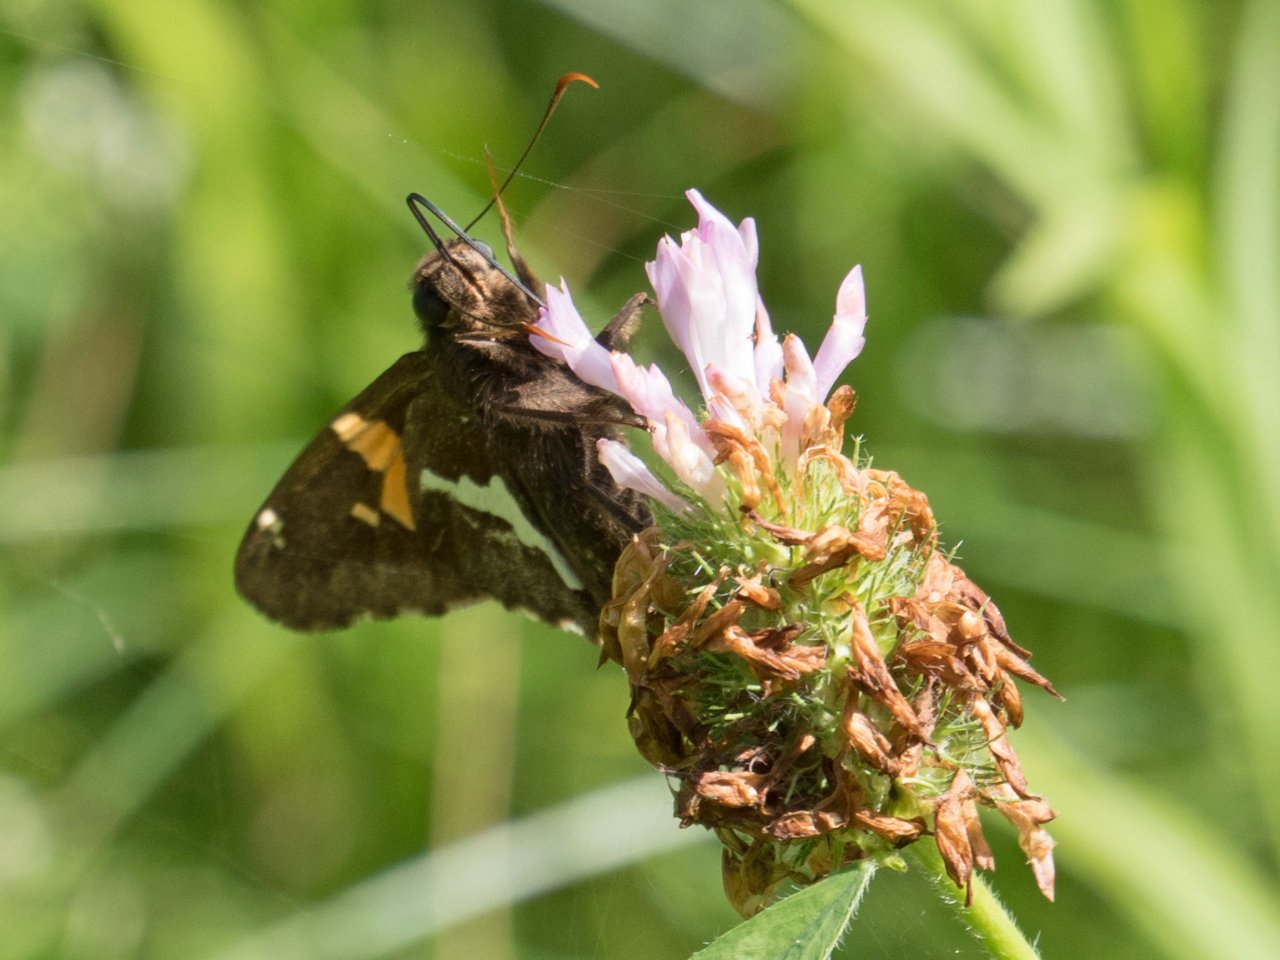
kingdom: Animalia
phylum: Arthropoda
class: Insecta
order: Lepidoptera
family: Hesperiidae
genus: Epargyreus
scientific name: Epargyreus clarus
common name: Silver-spotted Skipper
